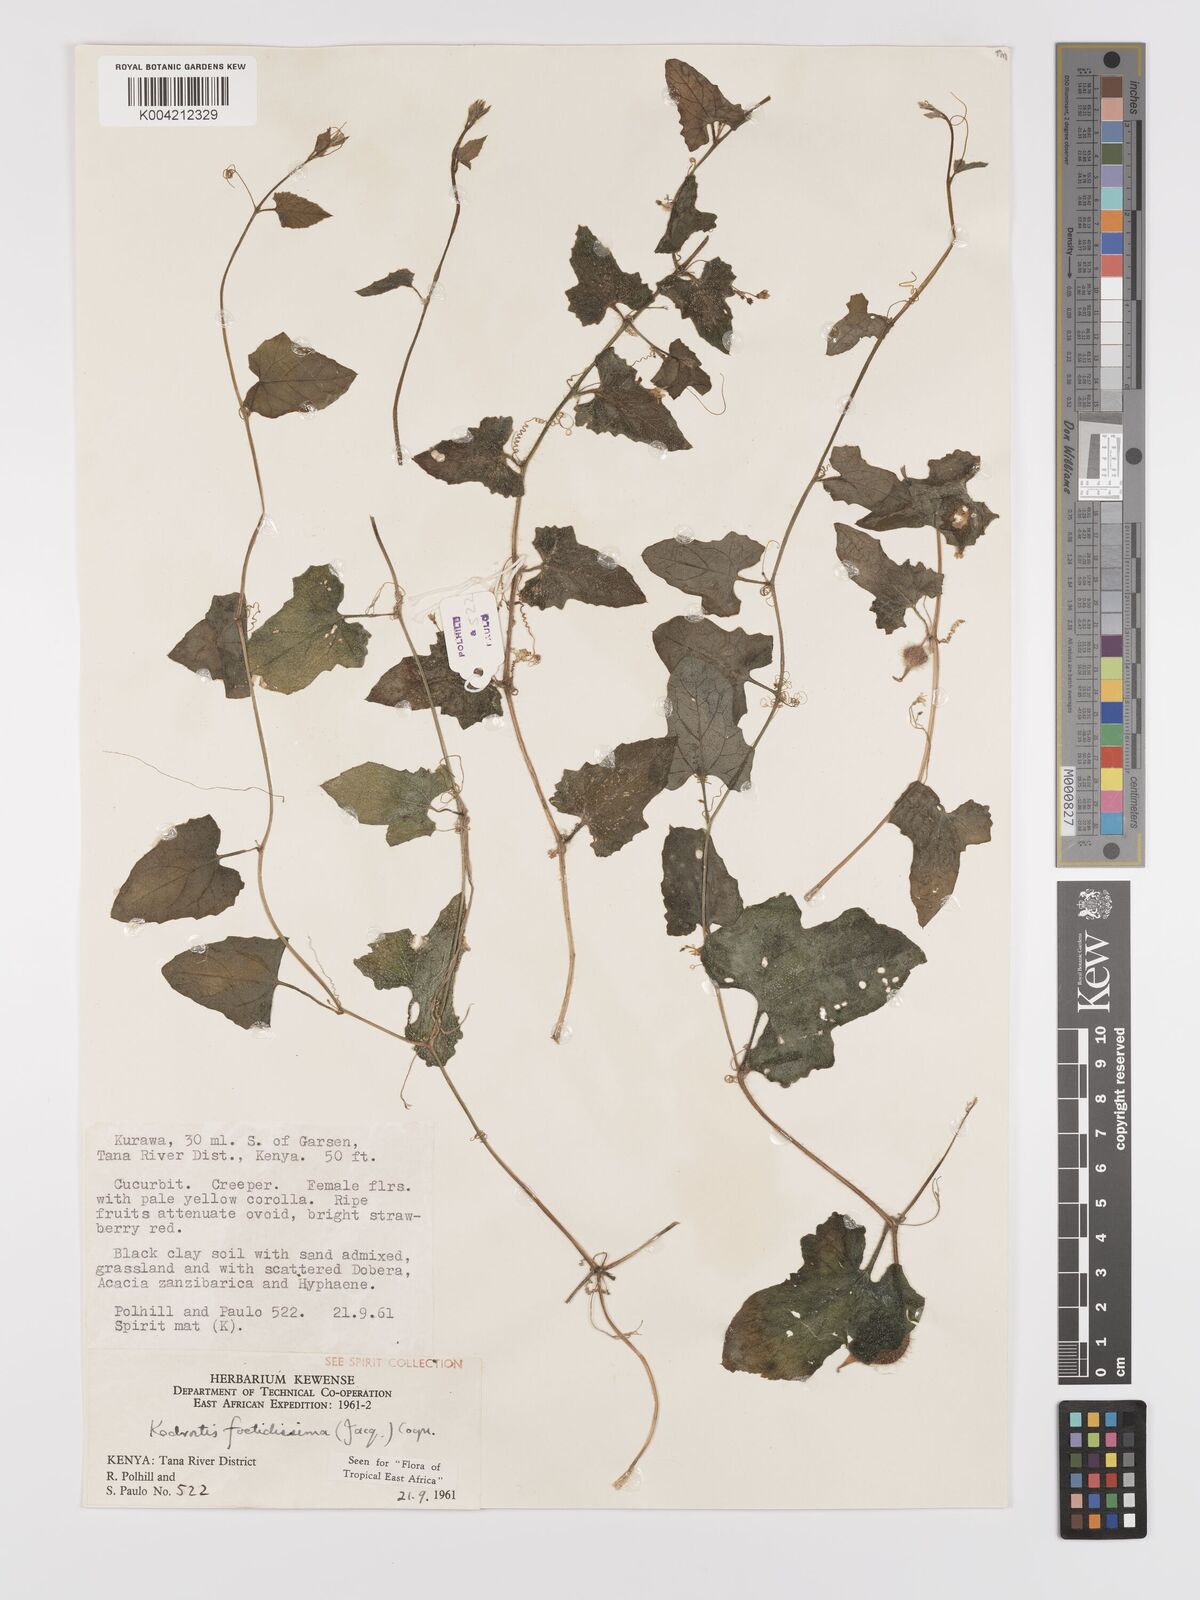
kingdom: Plantae
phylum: Tracheophyta
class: Magnoliopsida
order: Cucurbitales
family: Cucurbitaceae
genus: Kedrostis
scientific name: Kedrostis foetidissima
